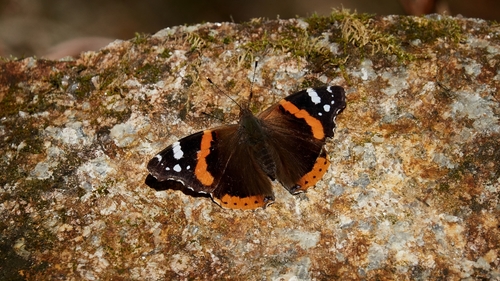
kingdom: Animalia
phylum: Arthropoda
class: Insecta
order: Lepidoptera
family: Nymphalidae
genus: Vanessa
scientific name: Vanessa atalanta
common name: Red admiral
